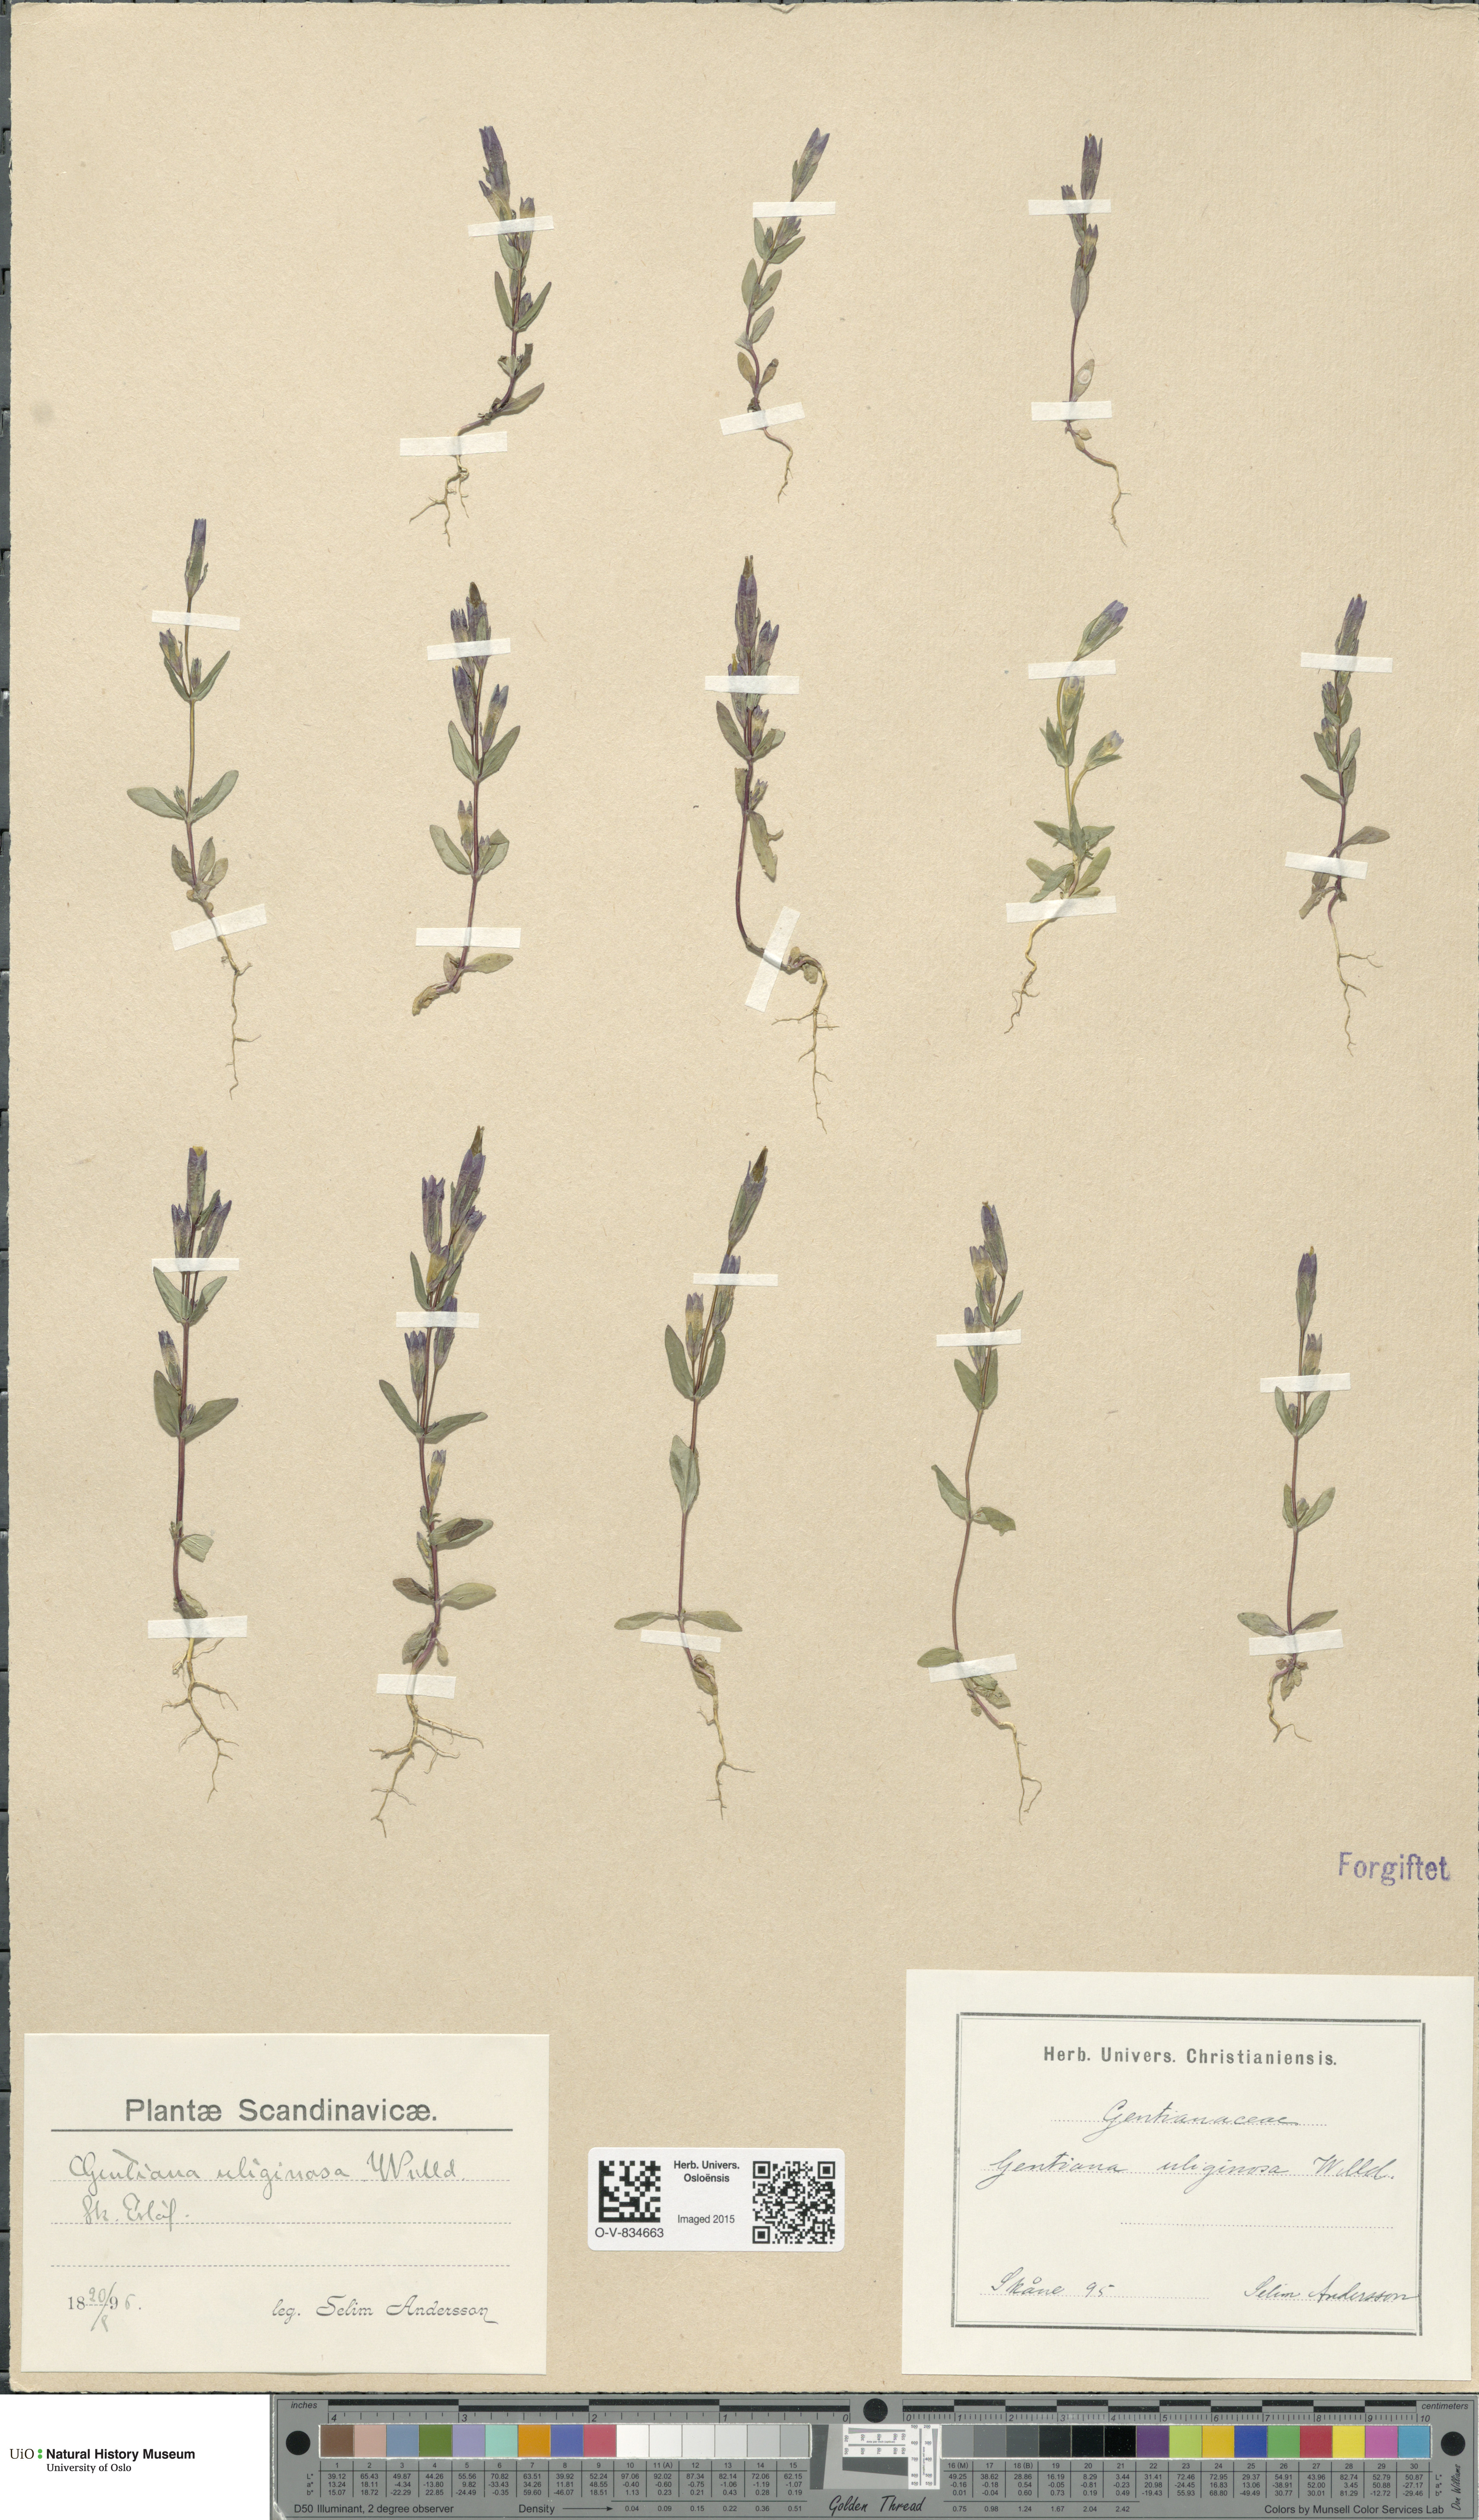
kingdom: Plantae
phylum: Tracheophyta
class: Magnoliopsida
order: Gentianales
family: Gentianaceae
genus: Gentianella
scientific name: Gentianella uliginosa
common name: Dune gentian
